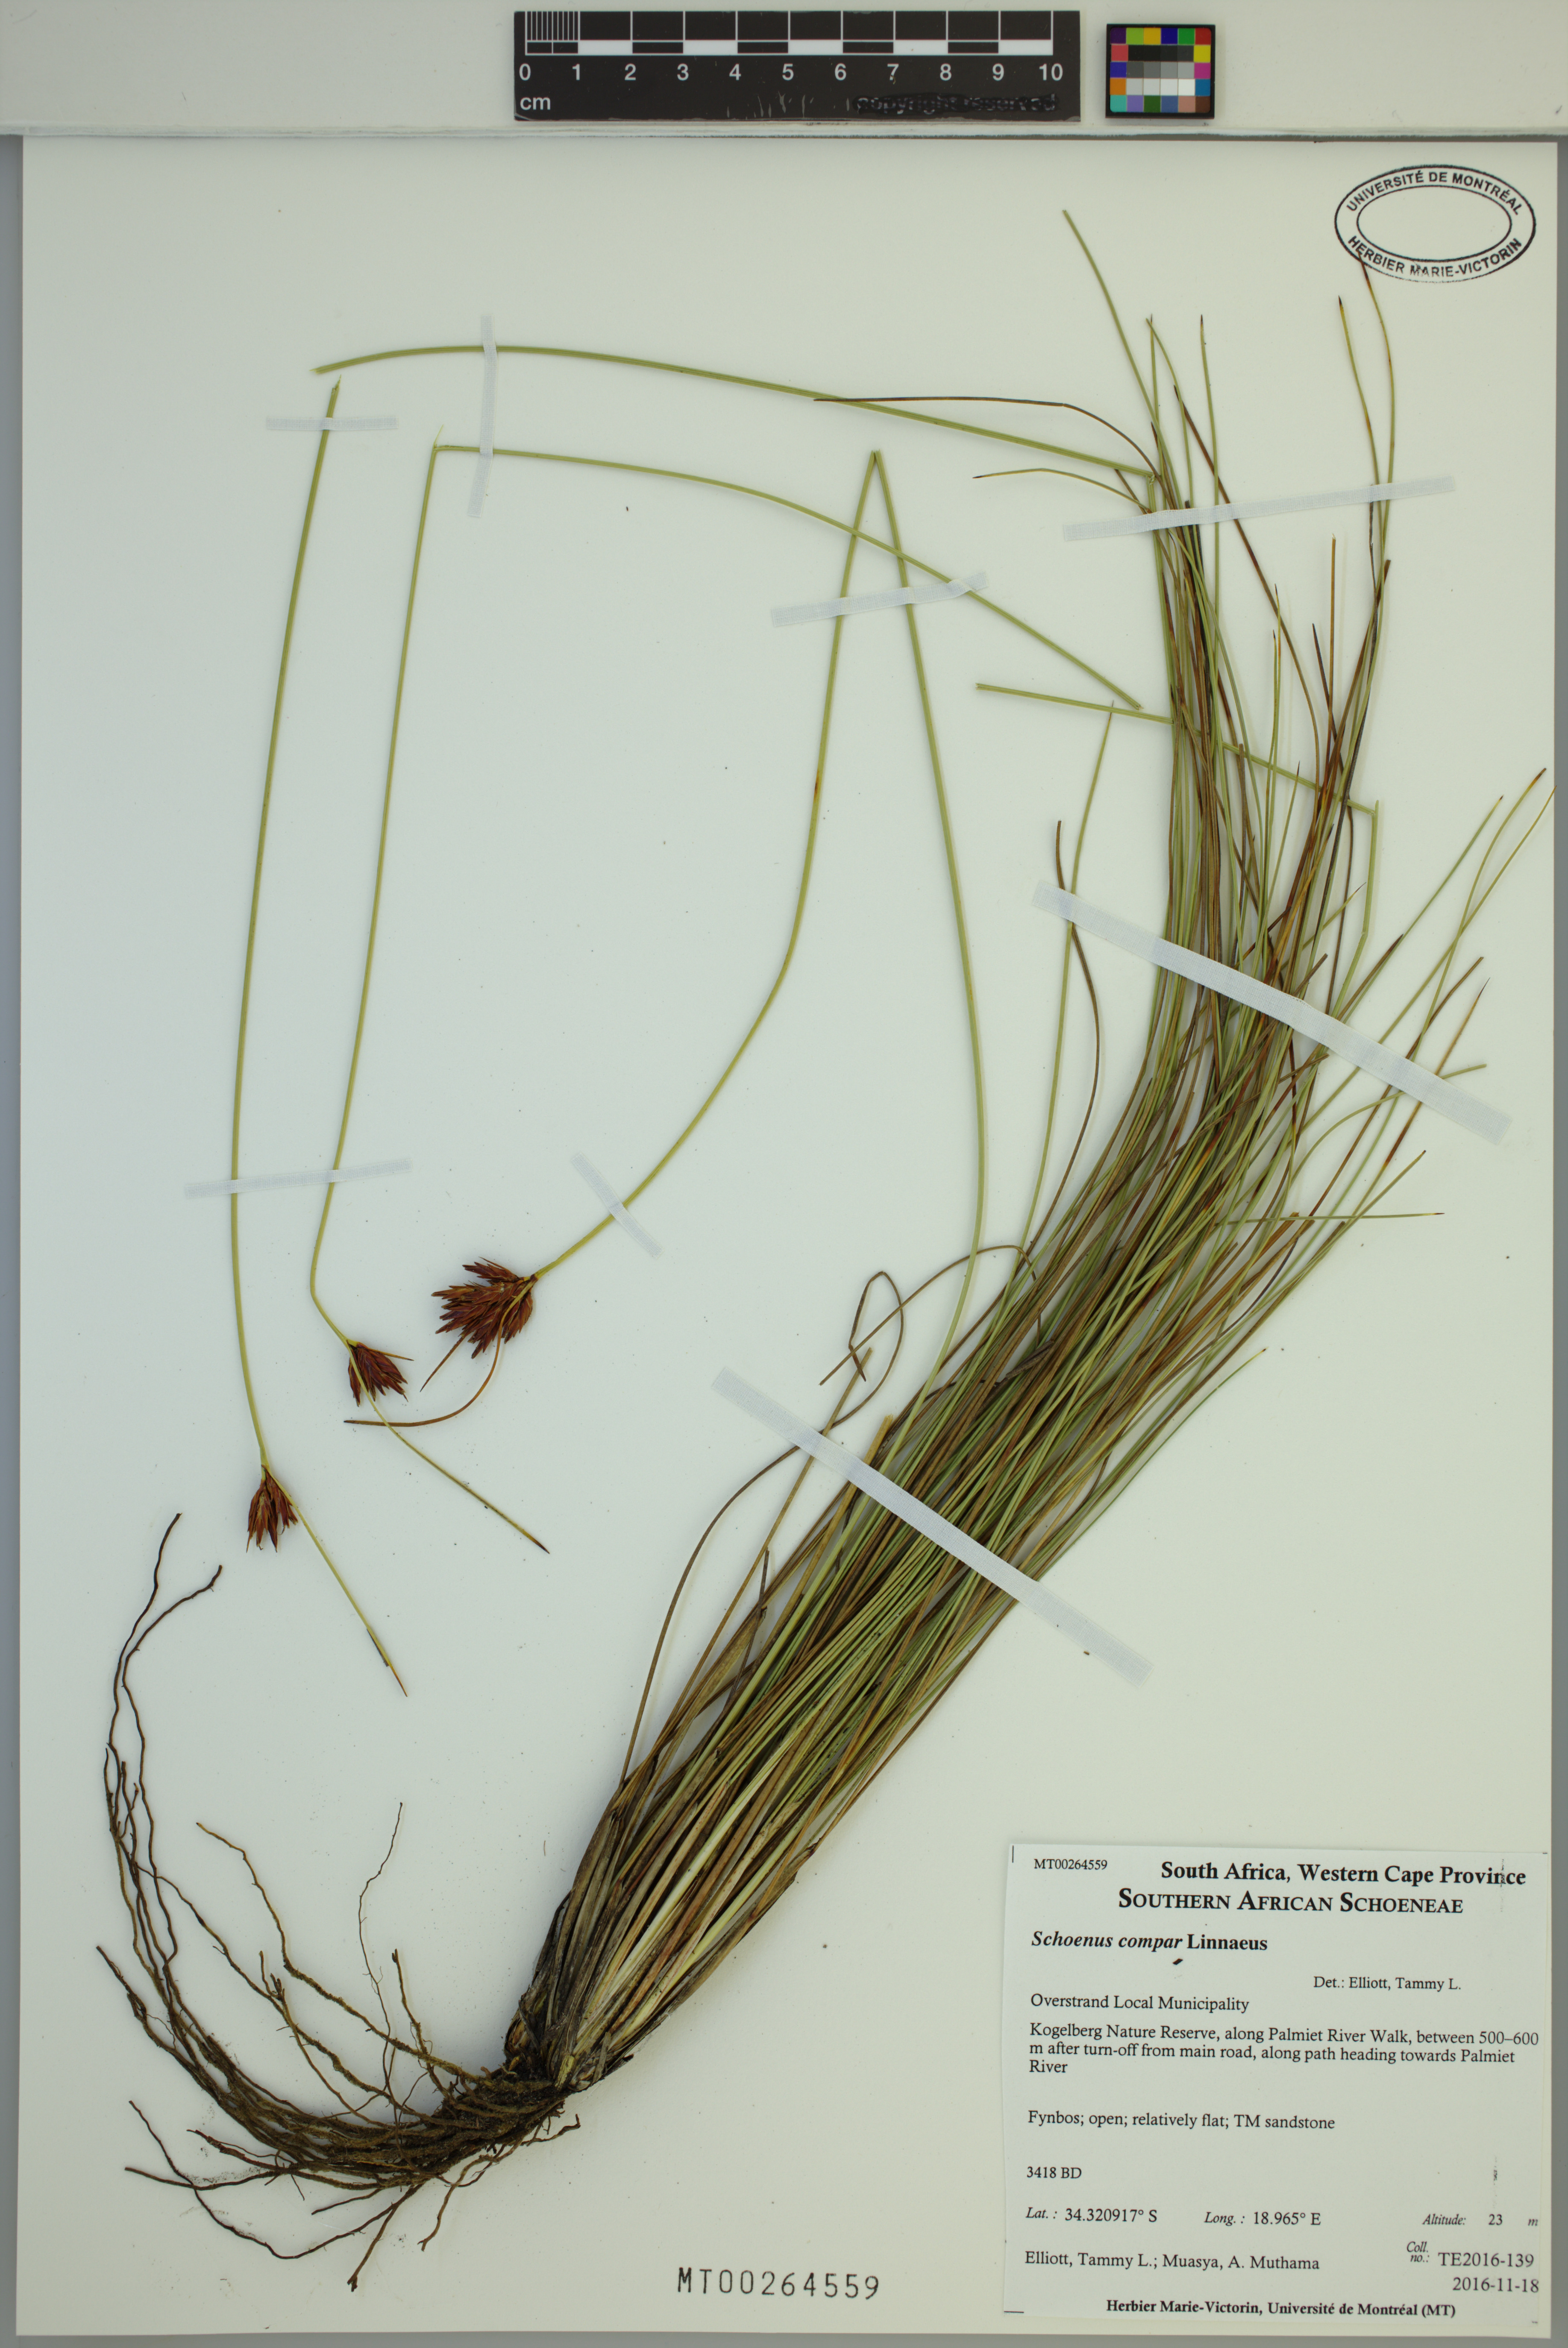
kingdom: Plantae
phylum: Tracheophyta
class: Liliopsida
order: Poales
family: Cyperaceae
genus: Schoenus
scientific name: Schoenus compar
